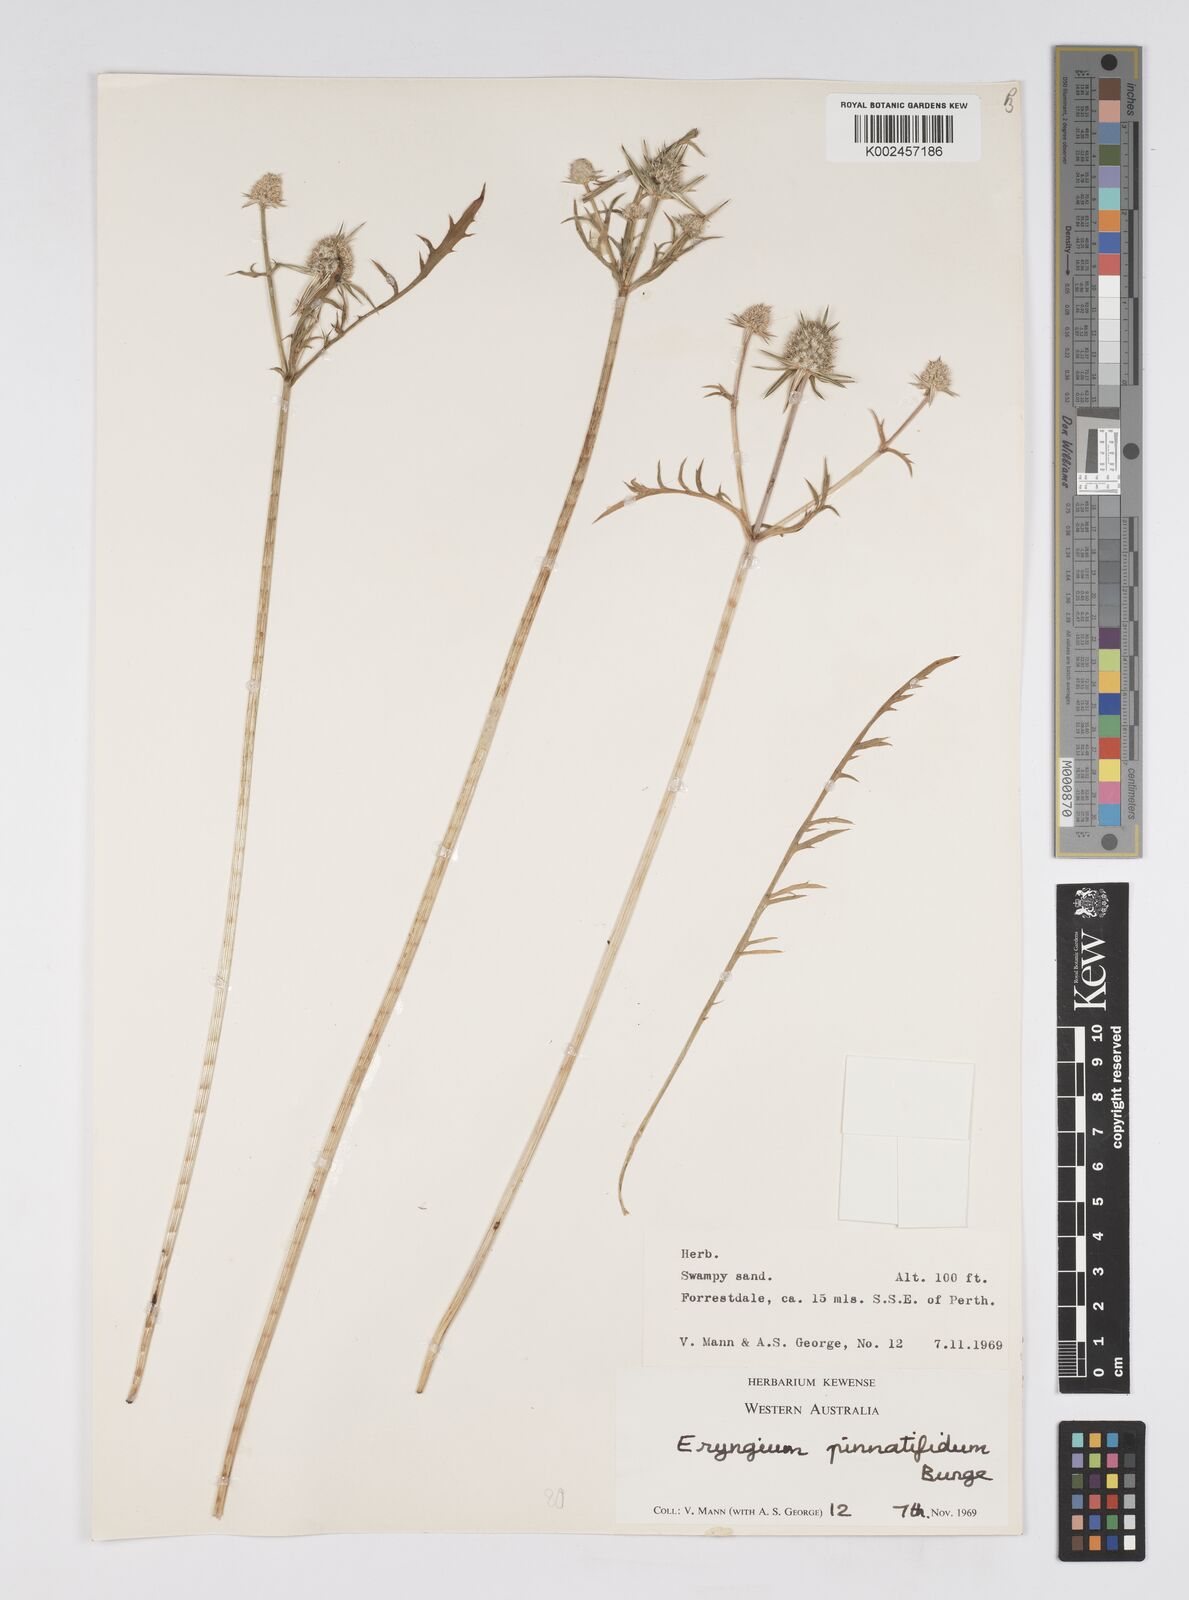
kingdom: Plantae
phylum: Tracheophyta
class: Magnoliopsida
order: Apiales
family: Apiaceae
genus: Eryngium
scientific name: Eryngium pinnatifidum
